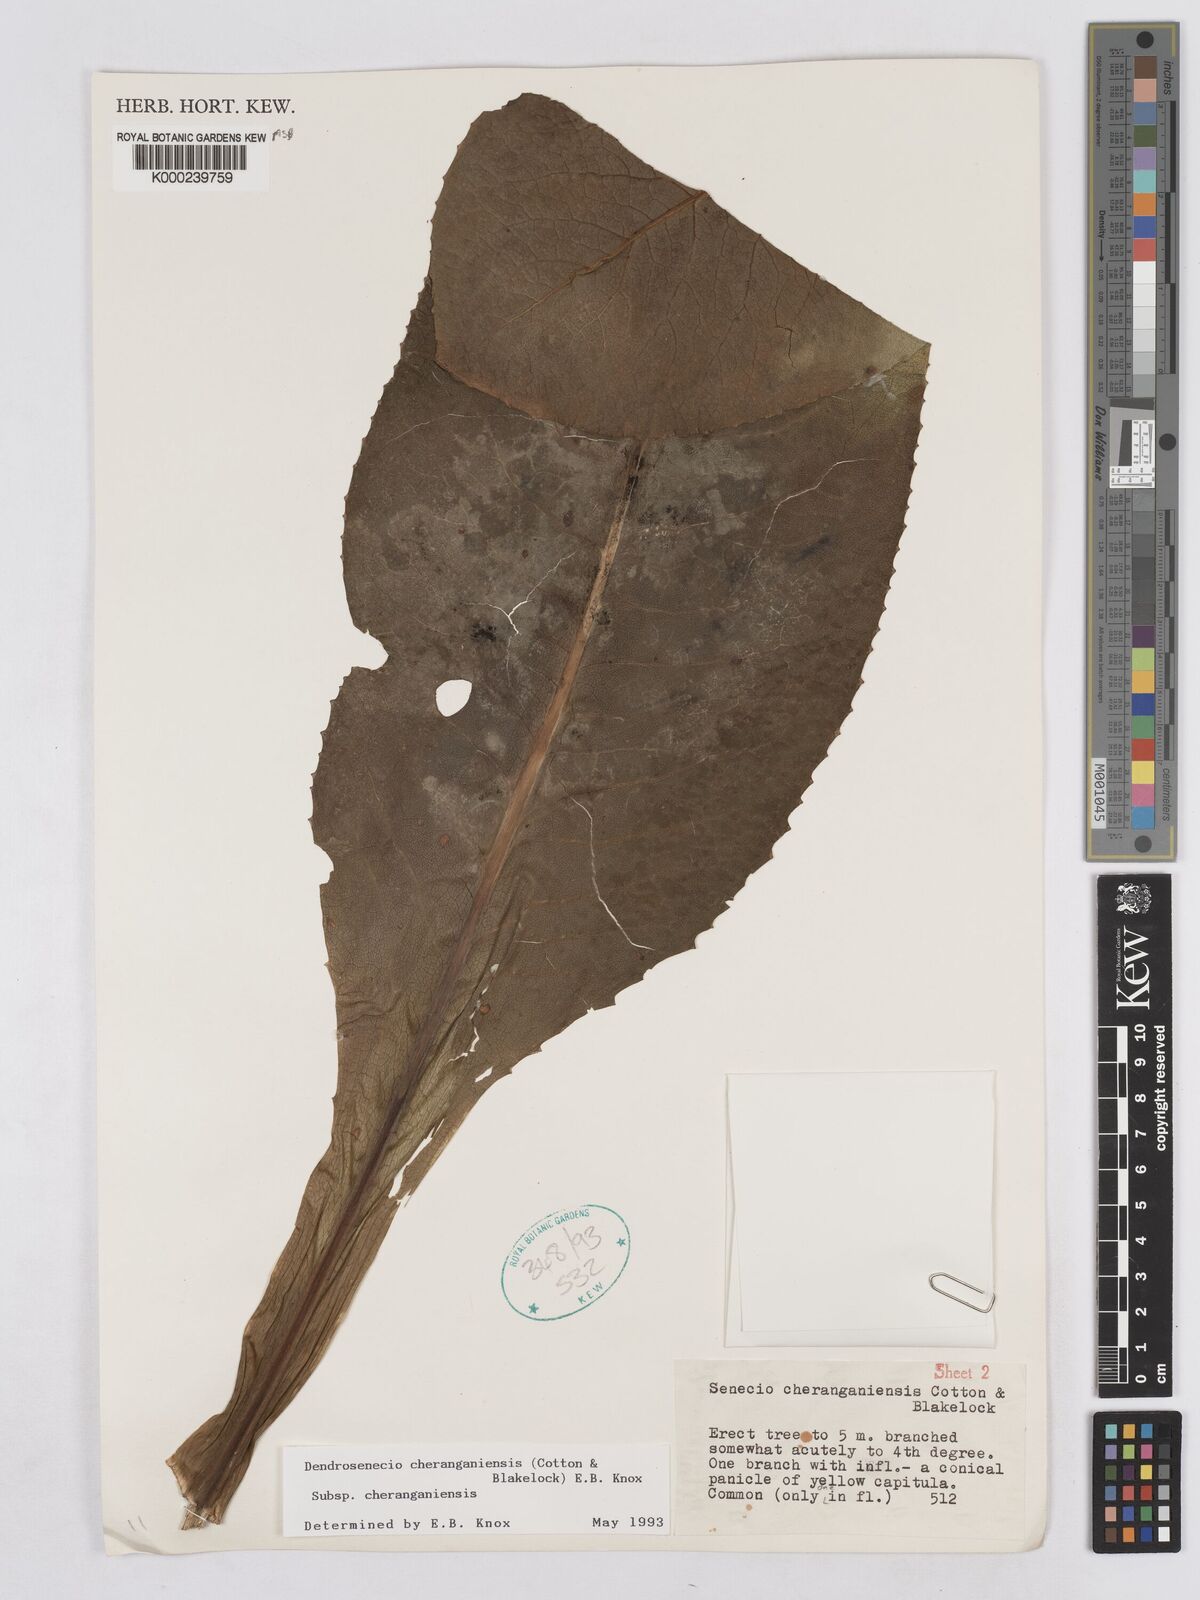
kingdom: Plantae
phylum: Tracheophyta
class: Magnoliopsida
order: Asterales
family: Asteraceae
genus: Dendrosenecio
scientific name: Dendrosenecio cheranganiensis
